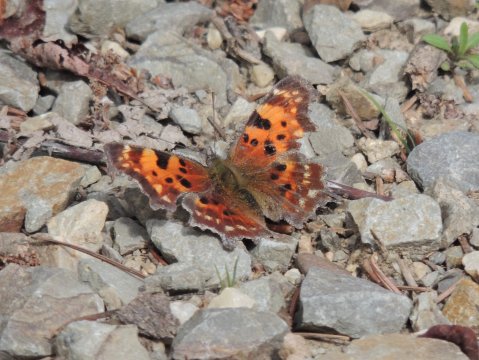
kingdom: Animalia
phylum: Arthropoda
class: Insecta
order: Lepidoptera
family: Nymphalidae
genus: Polygonia
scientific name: Polygonia faunus
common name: Green Comma
